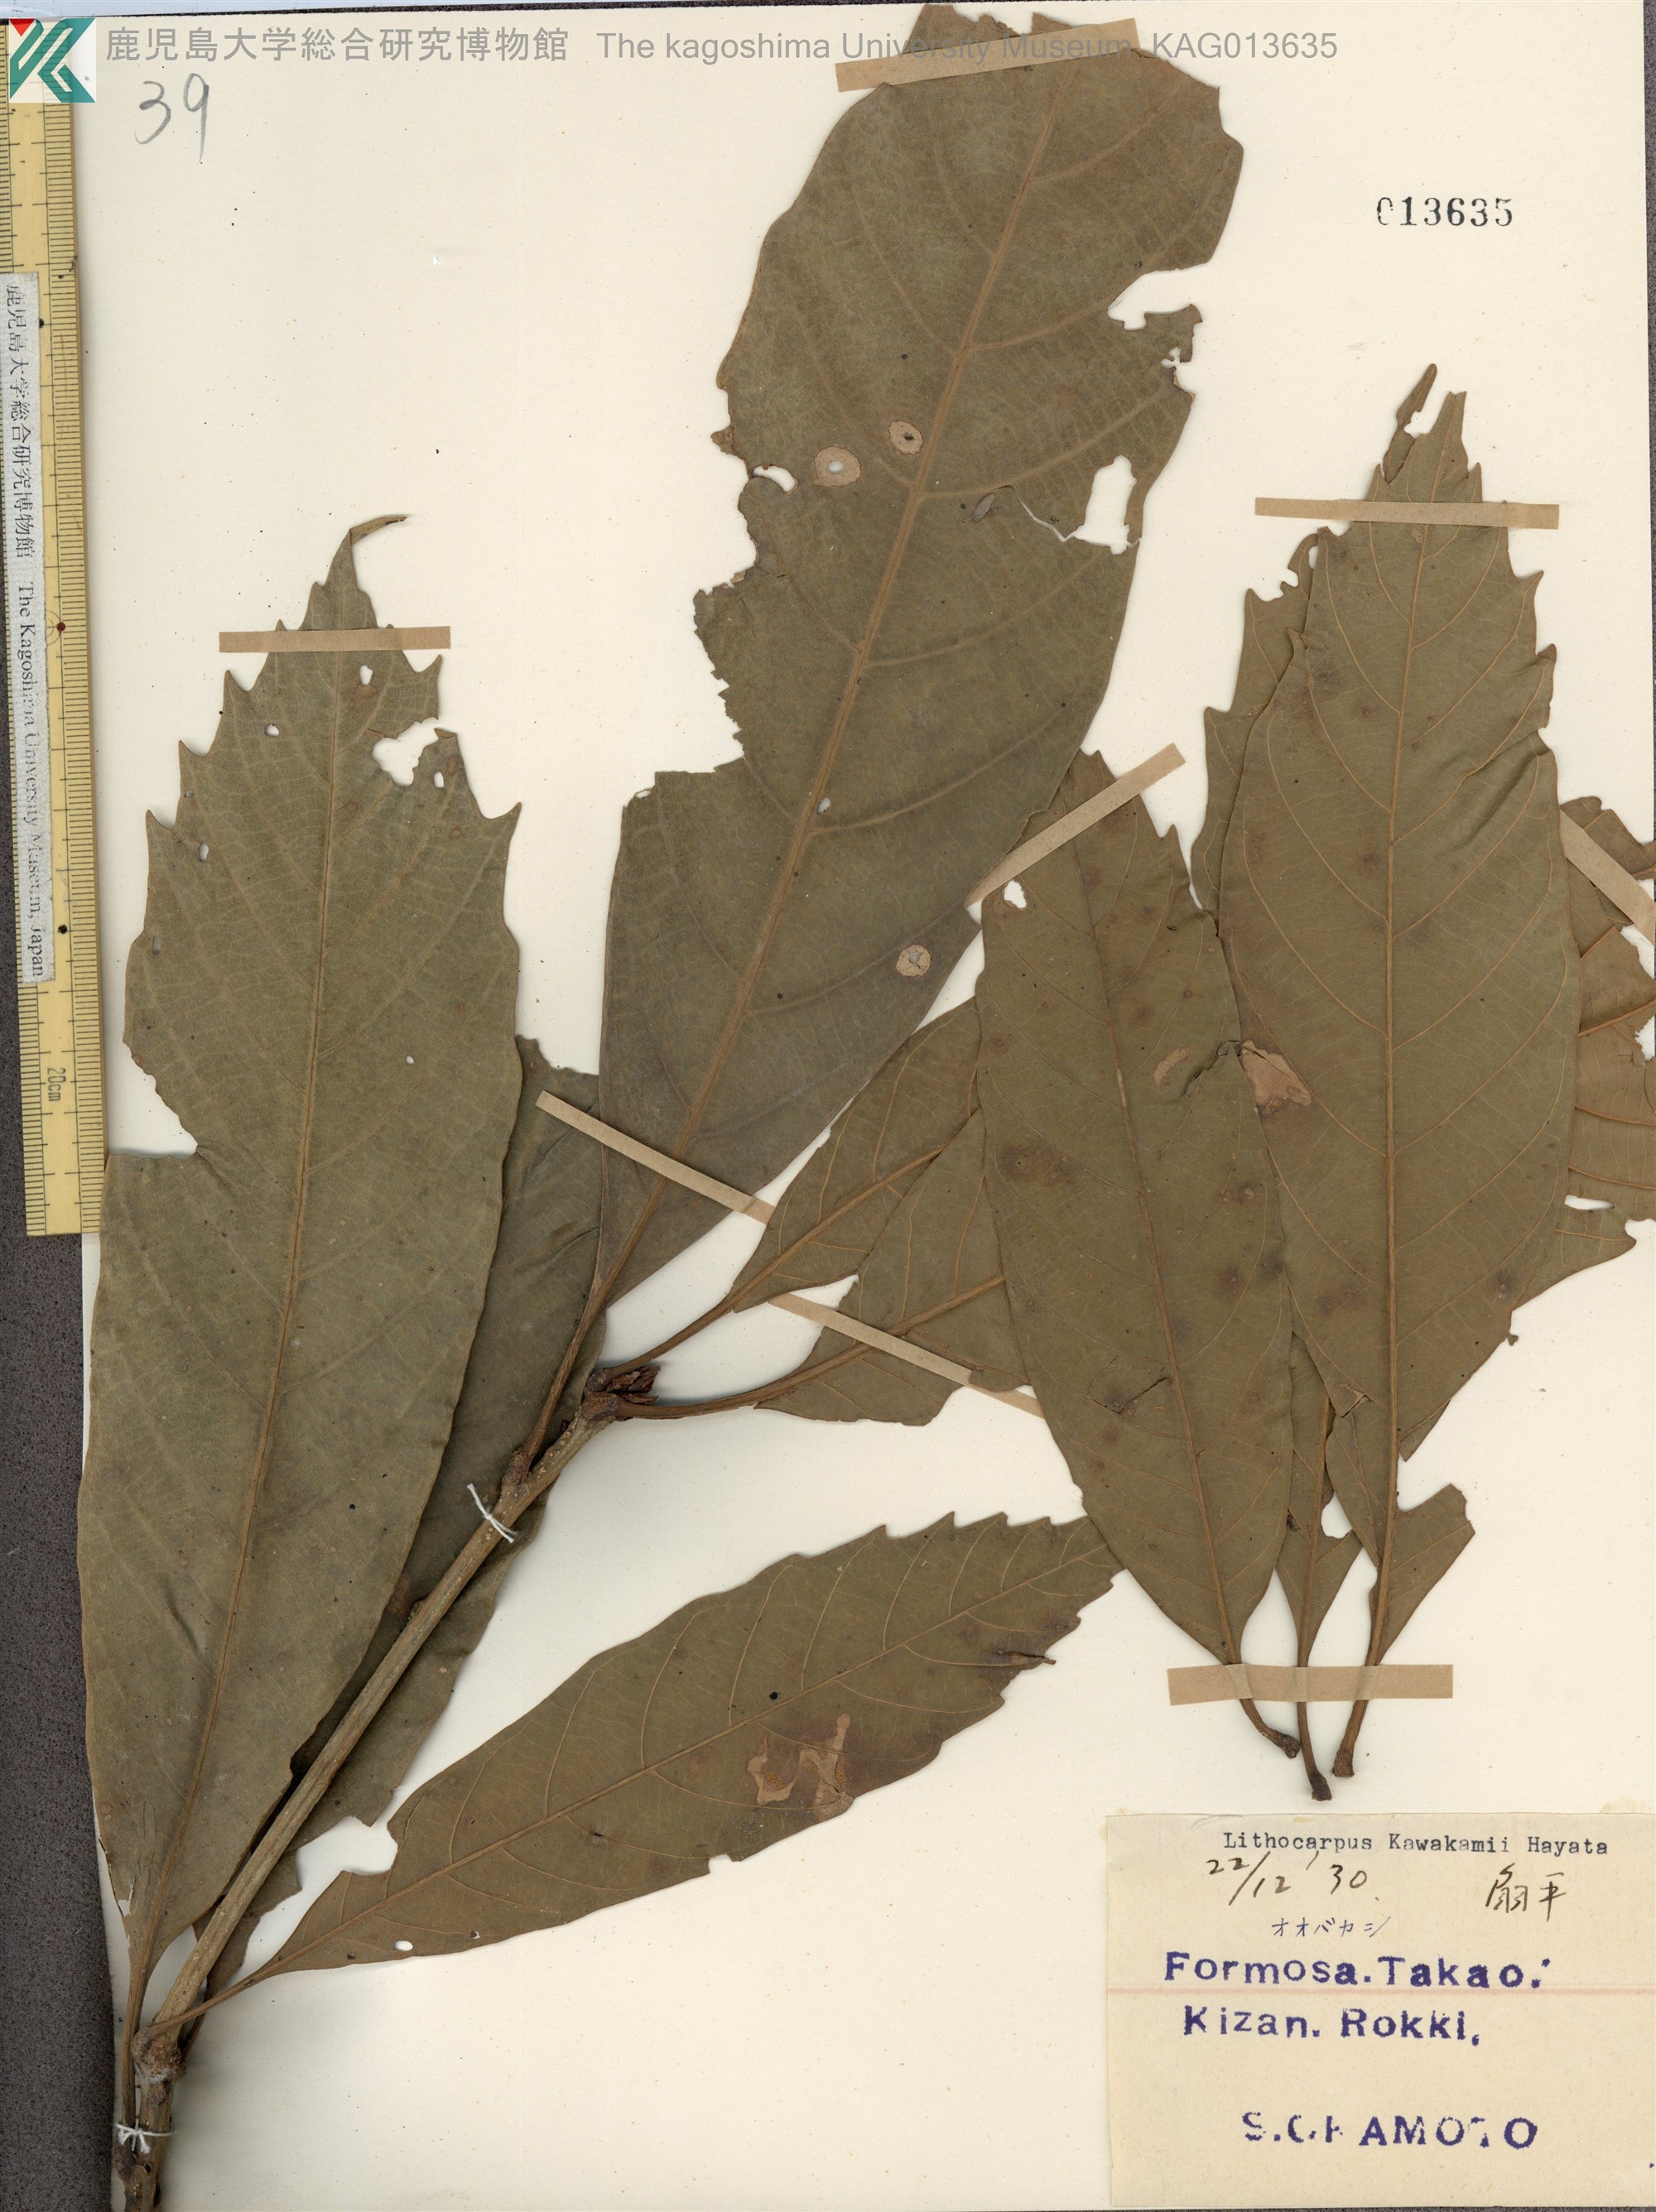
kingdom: Plantae
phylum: Tracheophyta
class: Magnoliopsida
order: Fagales
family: Fagaceae
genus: Lithocarpus
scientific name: Lithocarpus corneus
